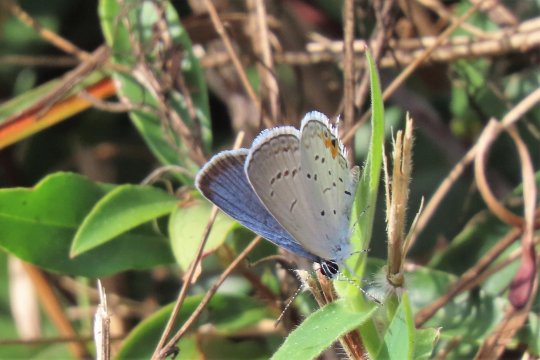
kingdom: Animalia
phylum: Arthropoda
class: Insecta
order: Lepidoptera
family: Lycaenidae
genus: Elkalyce
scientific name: Elkalyce comyntas
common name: Eastern Tailed-Blue
